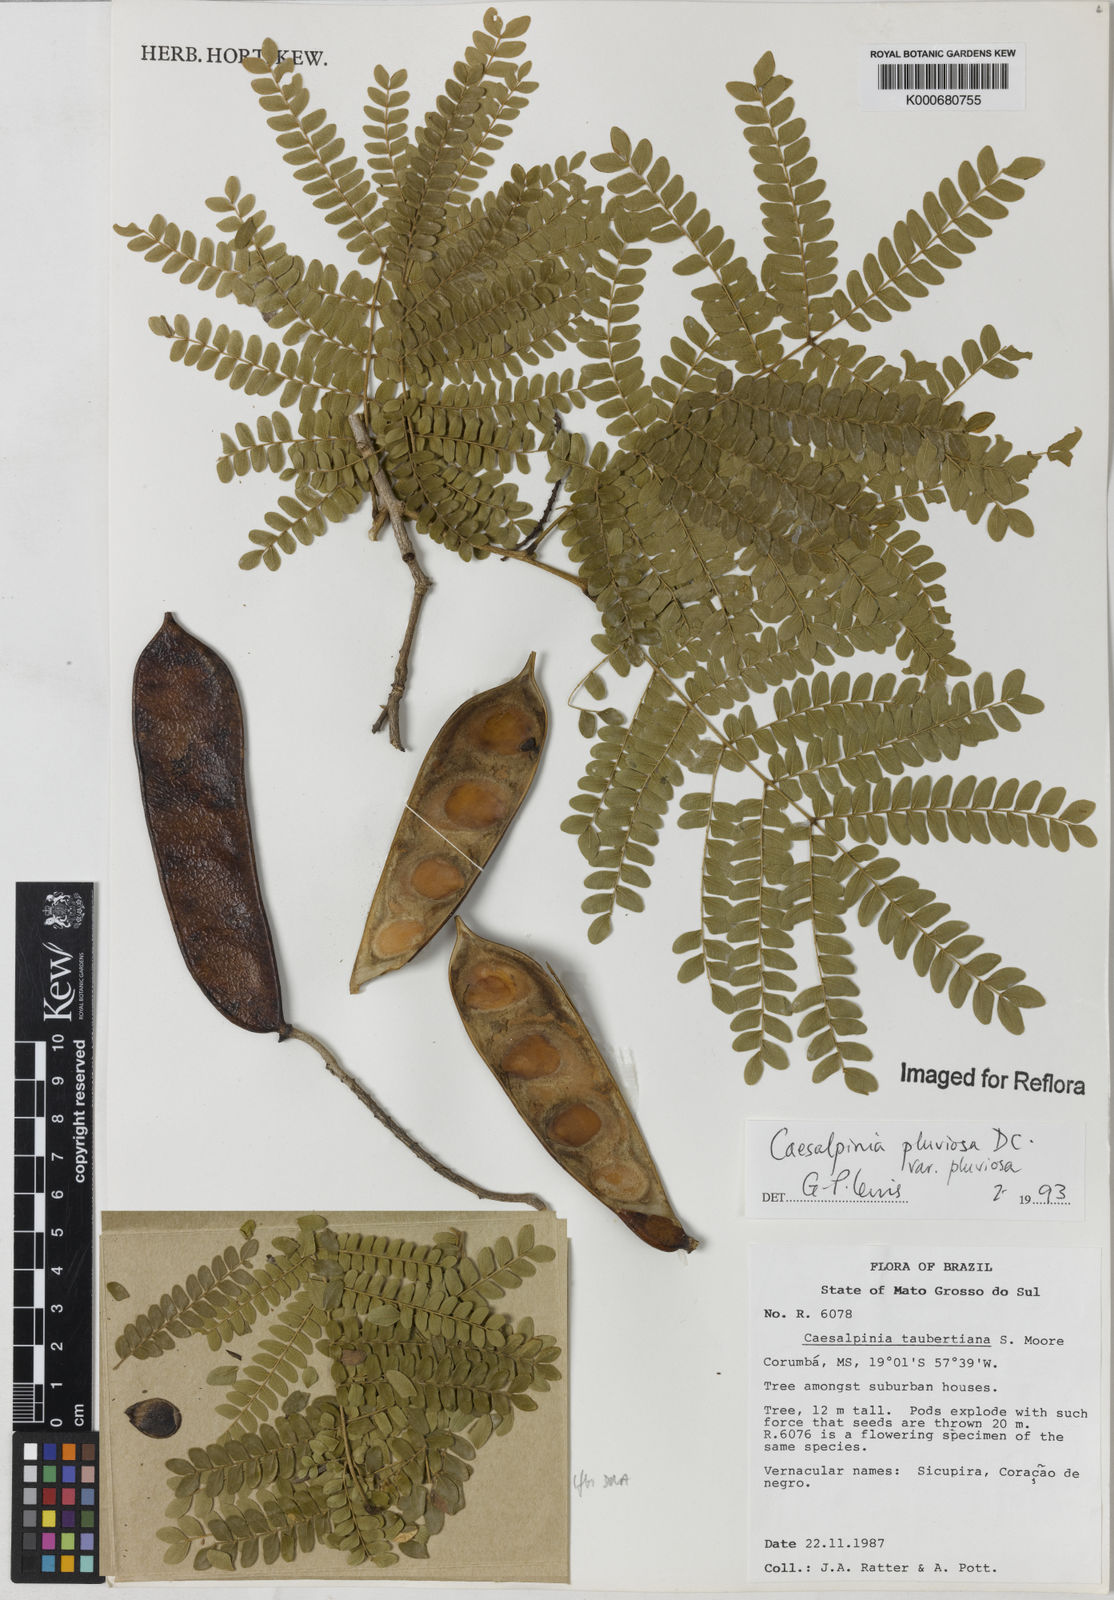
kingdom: Plantae
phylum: Tracheophyta
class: Magnoliopsida
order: Fabales
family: Fabaceae
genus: Cenostigma
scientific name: Cenostigma pluviosum
